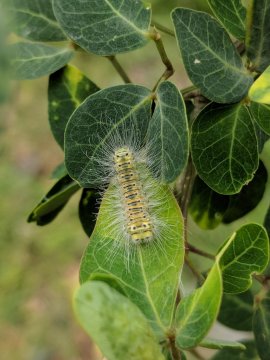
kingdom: Animalia
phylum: Arthropoda
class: Insecta
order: Lepidoptera
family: Lycaenidae
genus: Melanis
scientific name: Melanis
